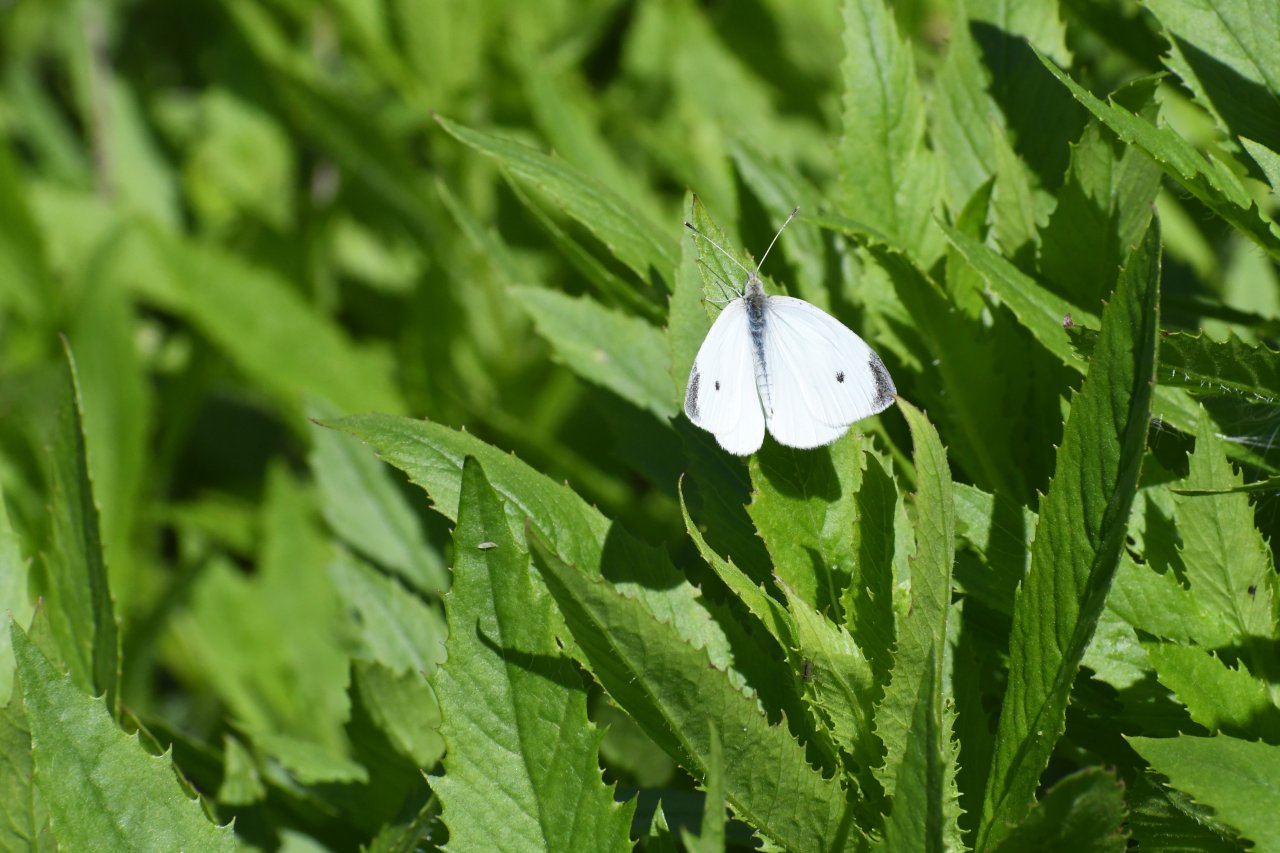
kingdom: Animalia
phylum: Arthropoda
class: Insecta
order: Lepidoptera
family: Pieridae
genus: Pieris
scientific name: Pieris rapae
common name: Cabbage White
